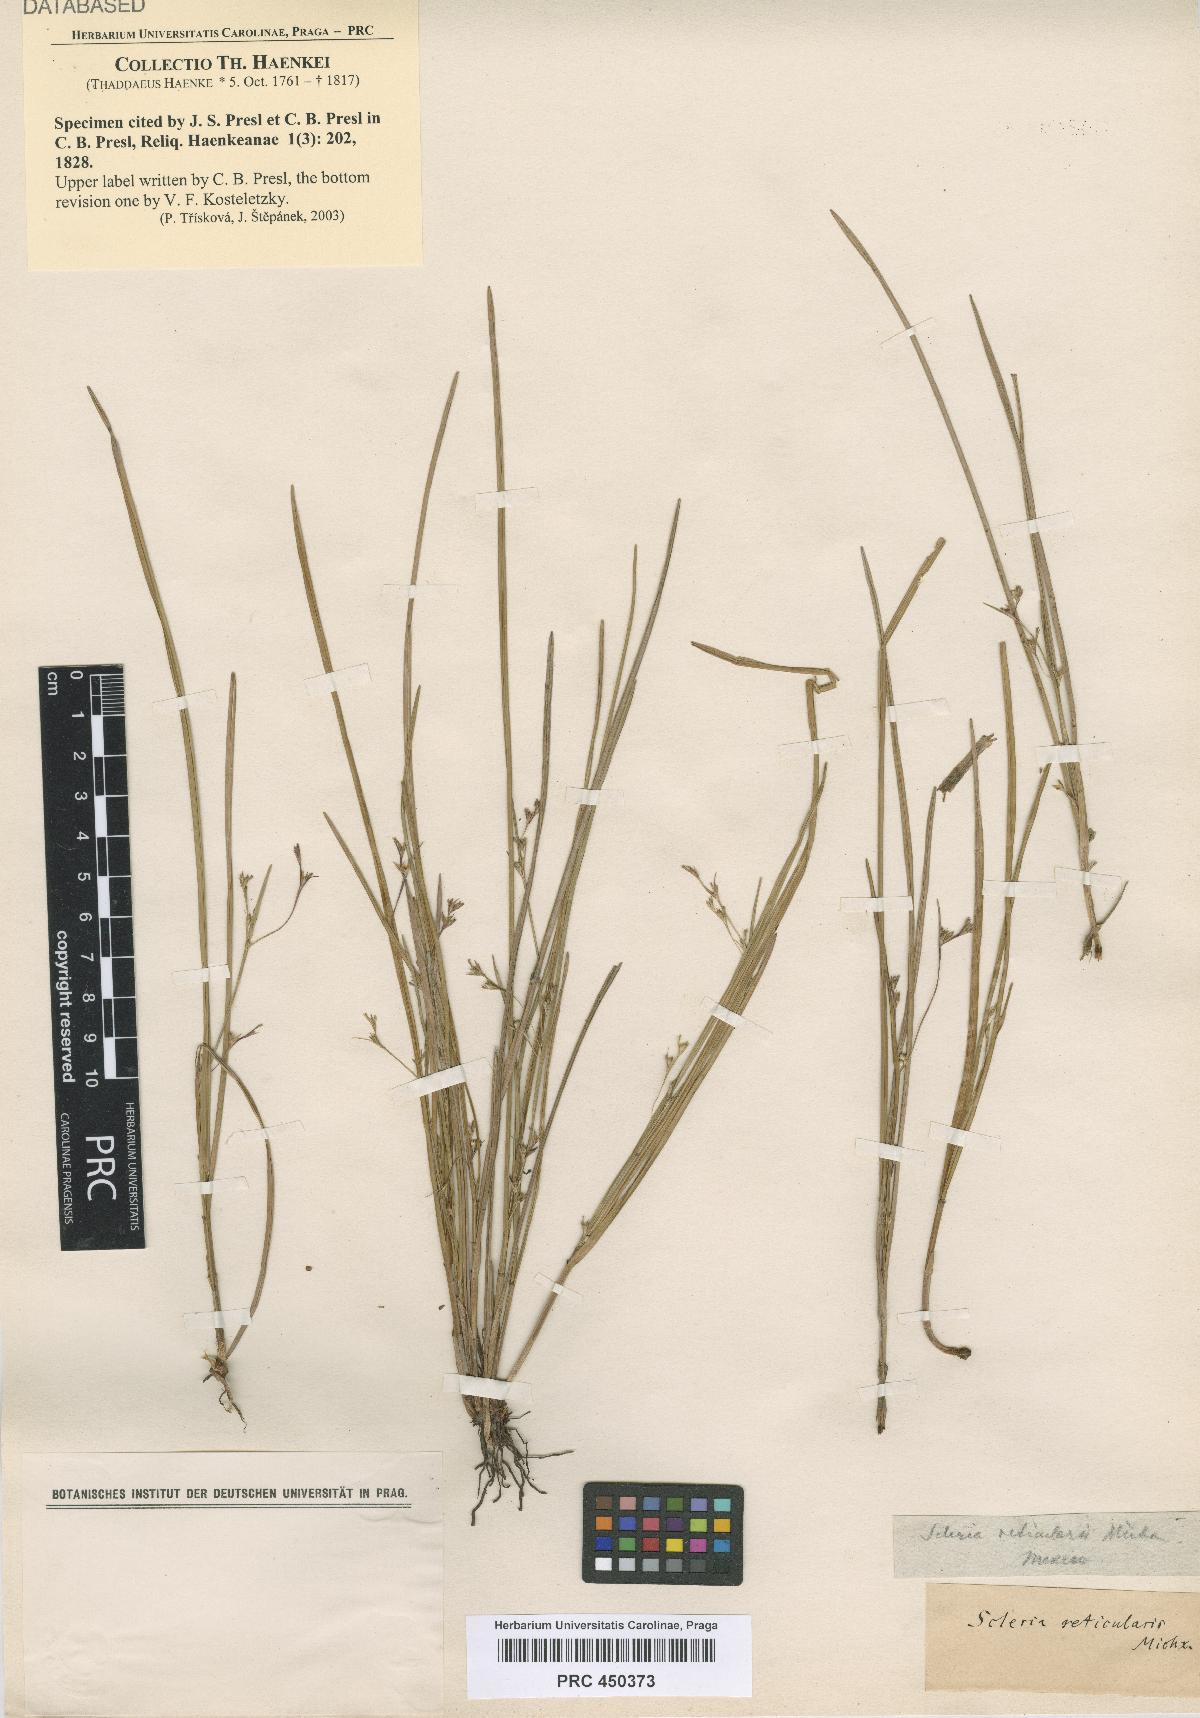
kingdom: Plantae
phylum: Tracheophyta
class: Liliopsida
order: Poales
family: Cyperaceae
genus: Scleria
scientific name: Scleria reticularis
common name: Netted nutrush
